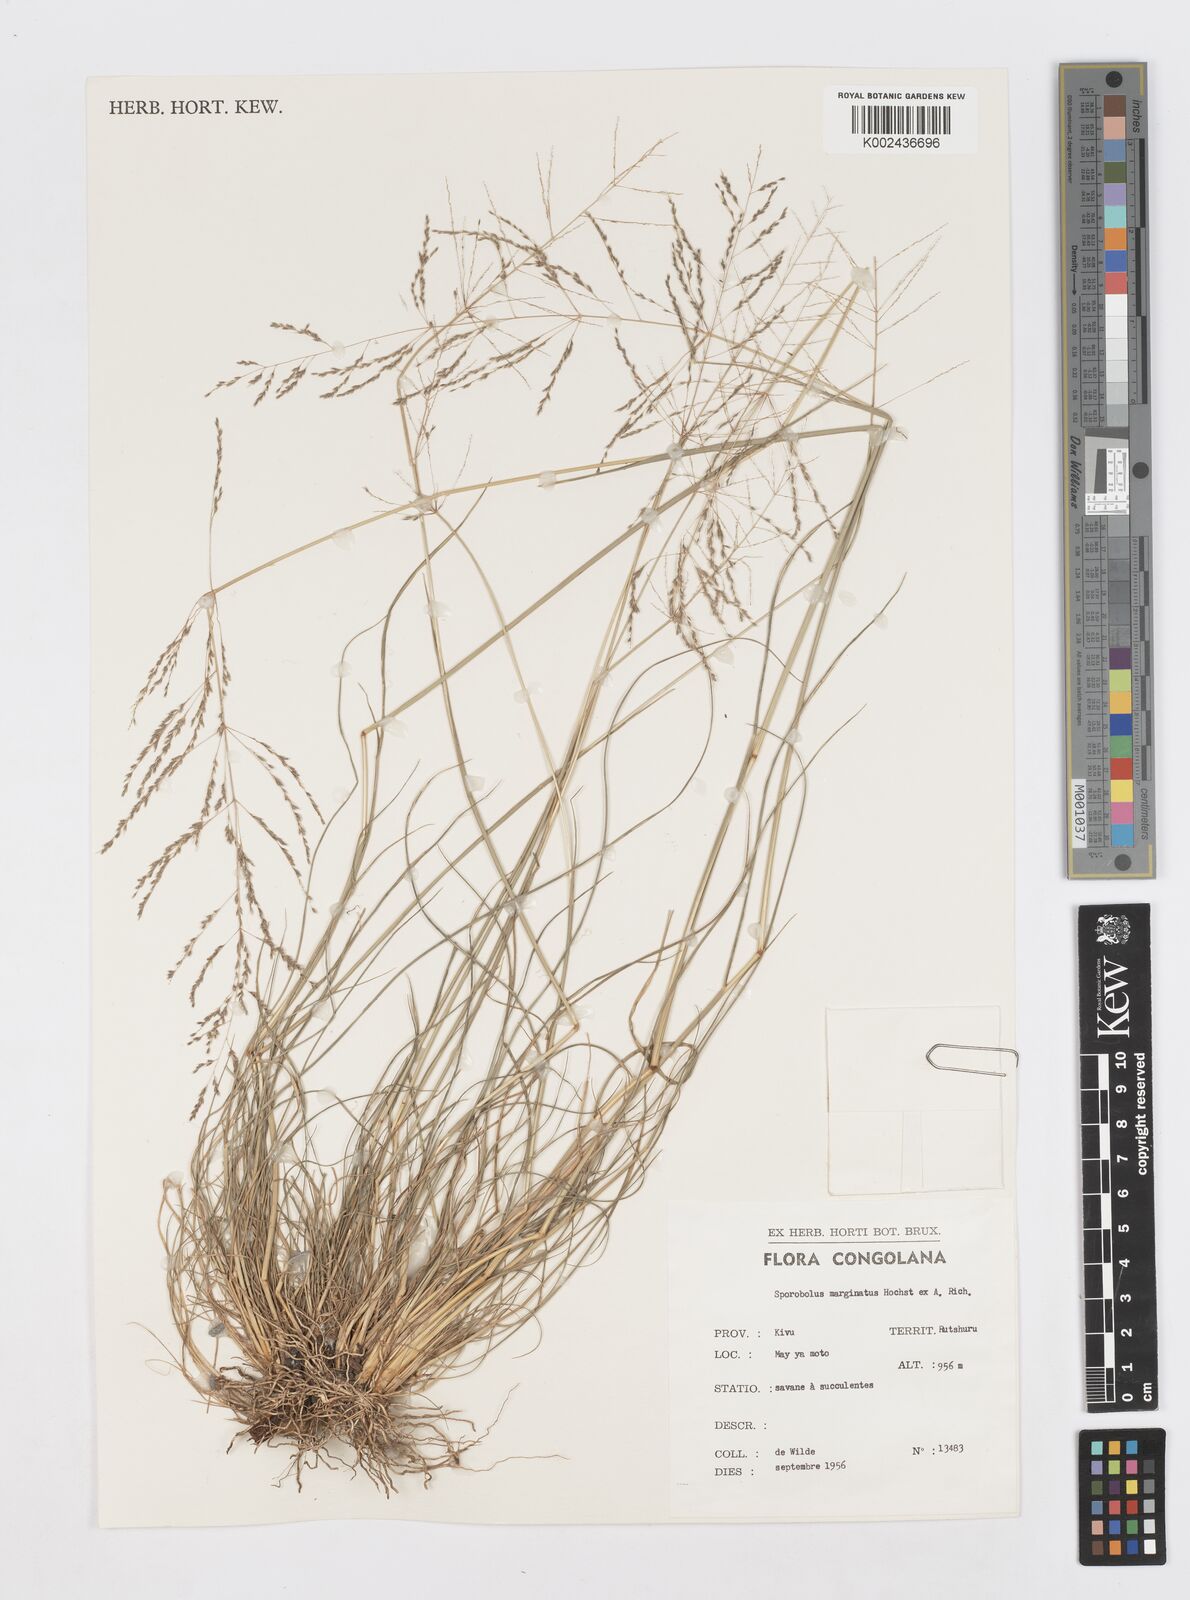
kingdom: Plantae
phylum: Tracheophyta
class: Liliopsida
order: Poales
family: Poaceae
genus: Sporobolus
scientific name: Sporobolus ioclados
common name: Pan dropseed
